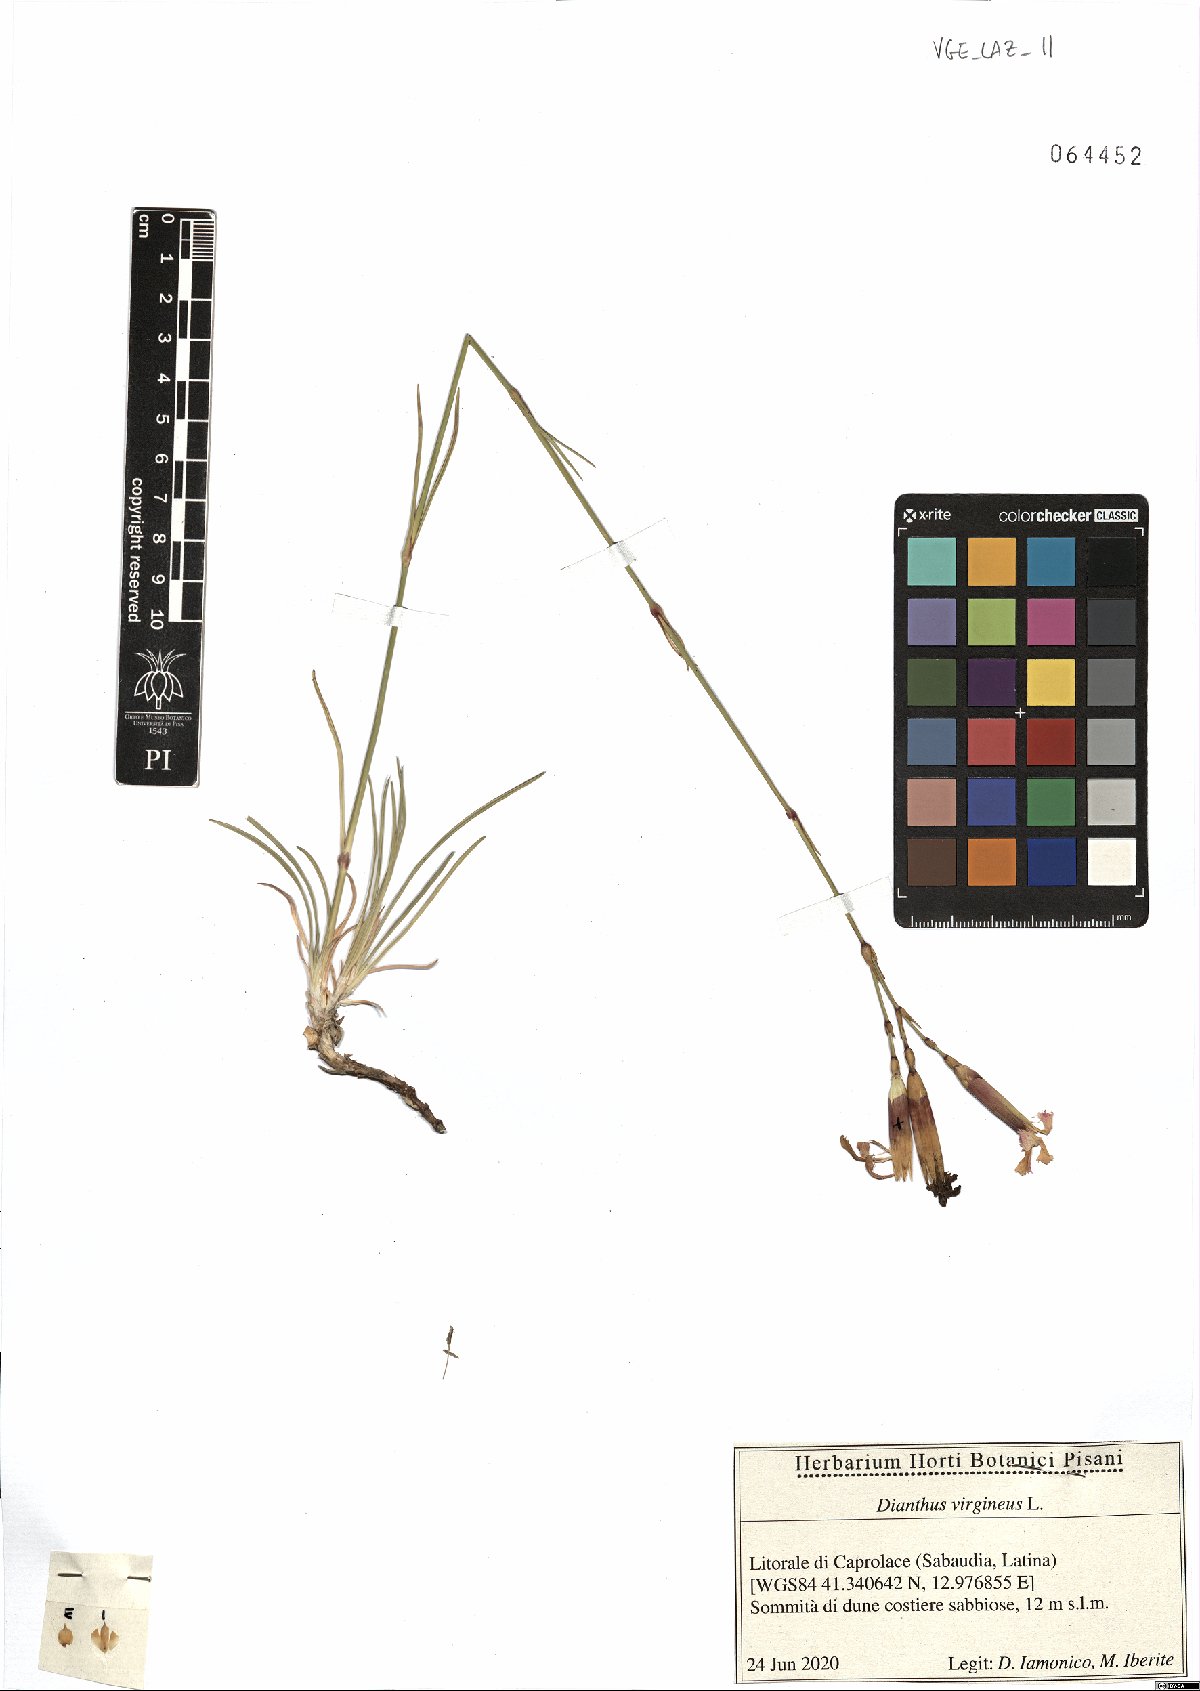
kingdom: Plantae
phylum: Tracheophyta
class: Magnoliopsida
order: Caryophyllales
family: Caryophyllaceae
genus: Dianthus
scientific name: Dianthus virgineus
